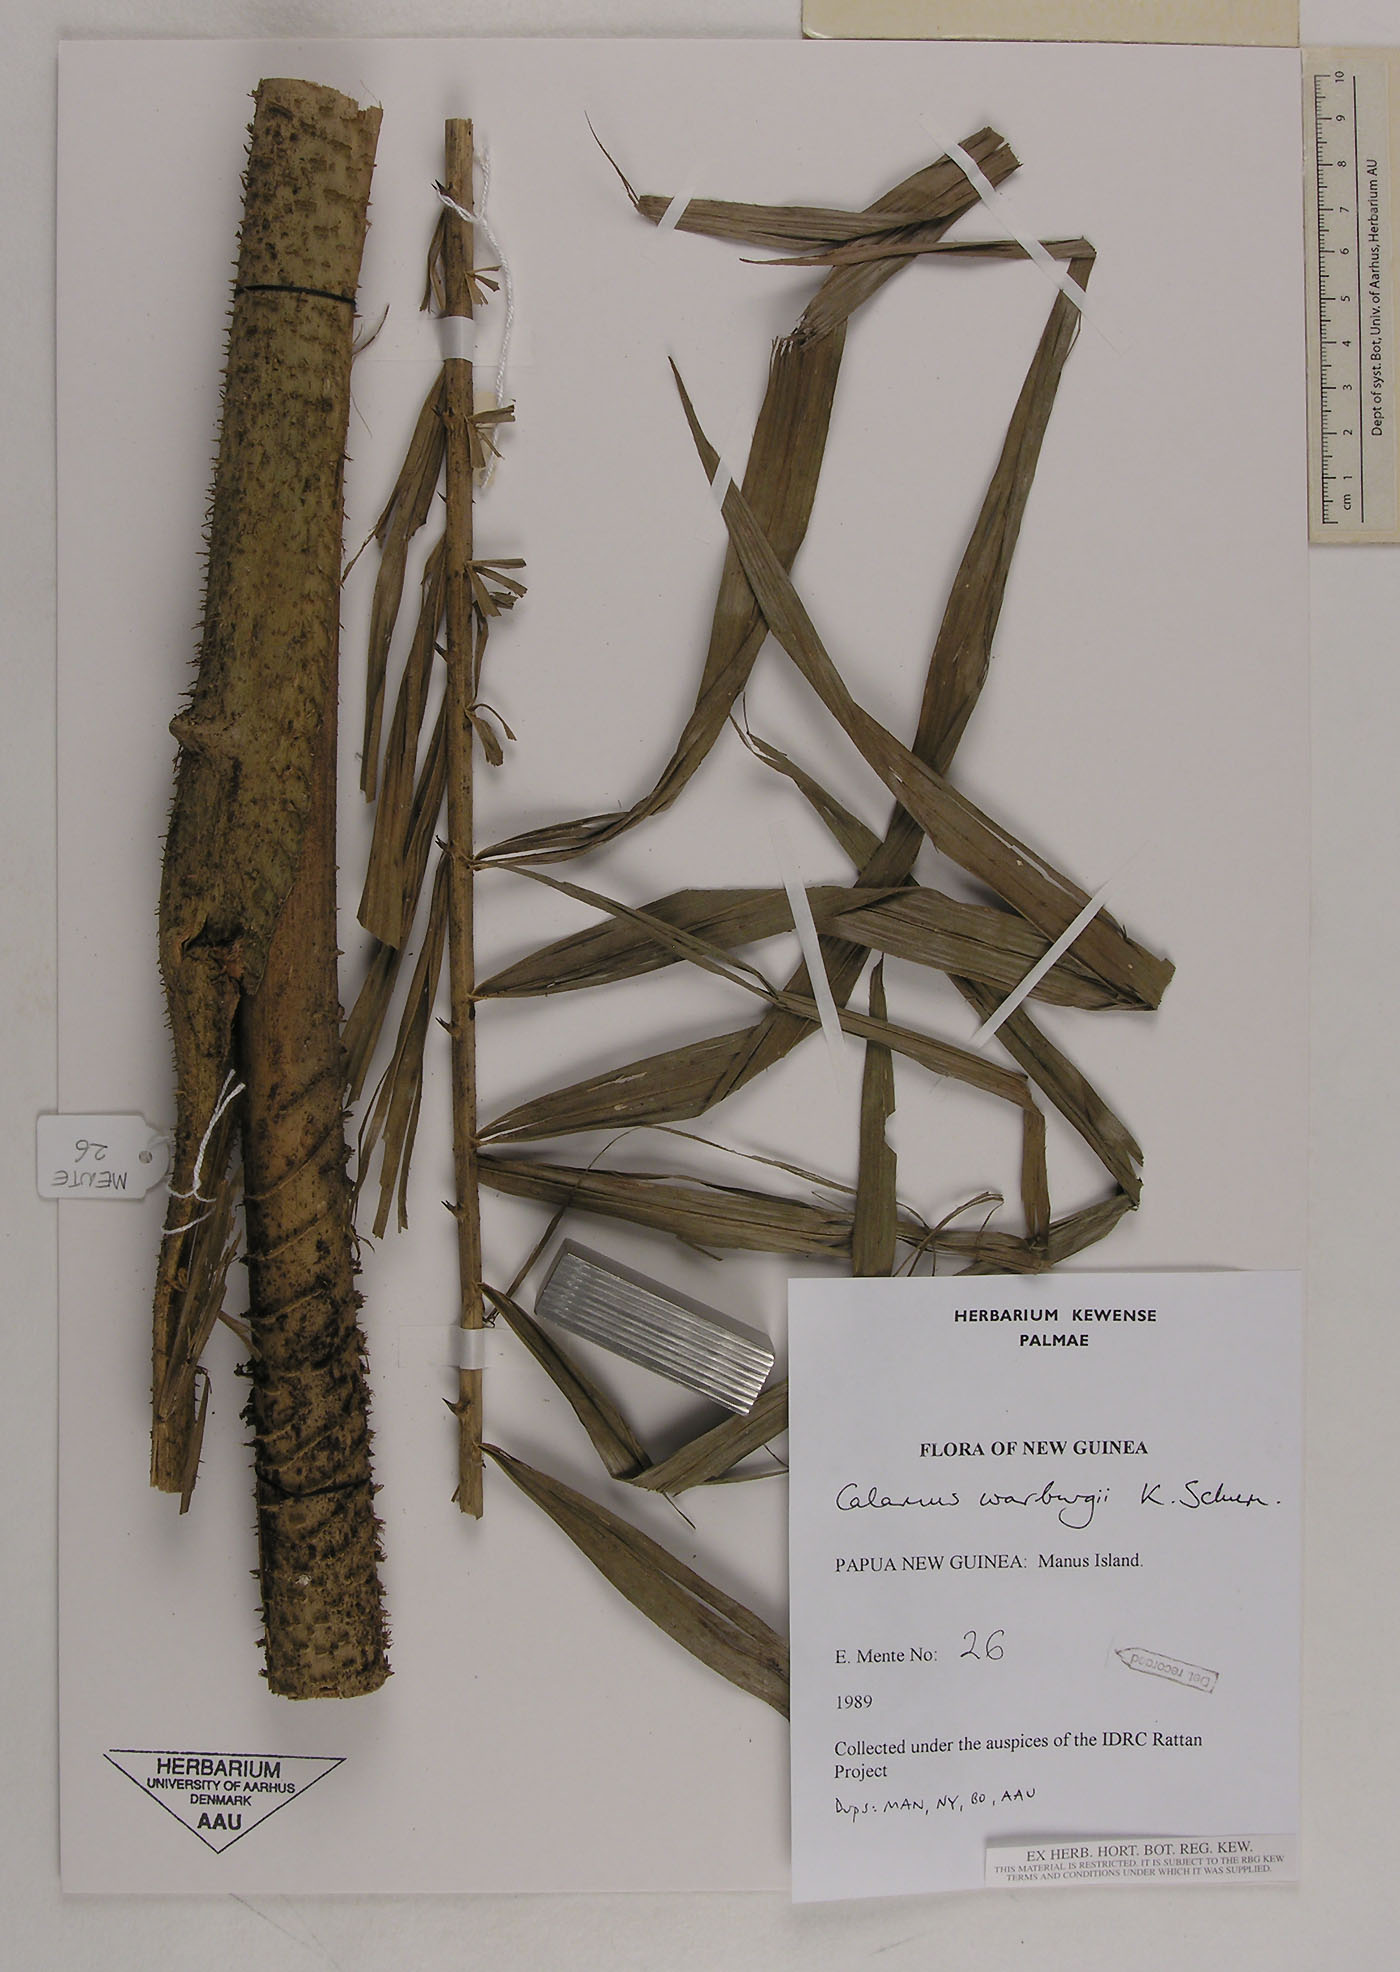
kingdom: Plantae
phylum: Tracheophyta
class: Liliopsida
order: Arecales
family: Arecaceae
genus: Calamus
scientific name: Calamus warburgii
